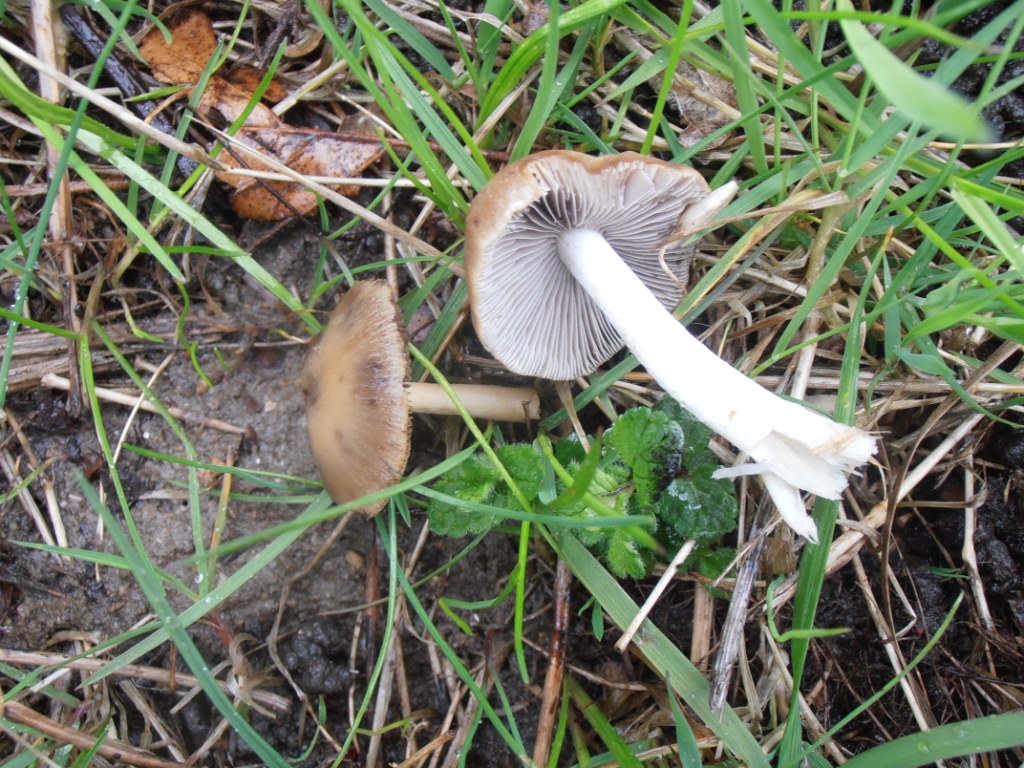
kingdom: Fungi
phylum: Basidiomycota
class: Agaricomycetes
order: Agaricales
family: Psathyrellaceae
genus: Psathyrella
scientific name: Psathyrella spadiceogrisea
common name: gråbrun mørkhat
